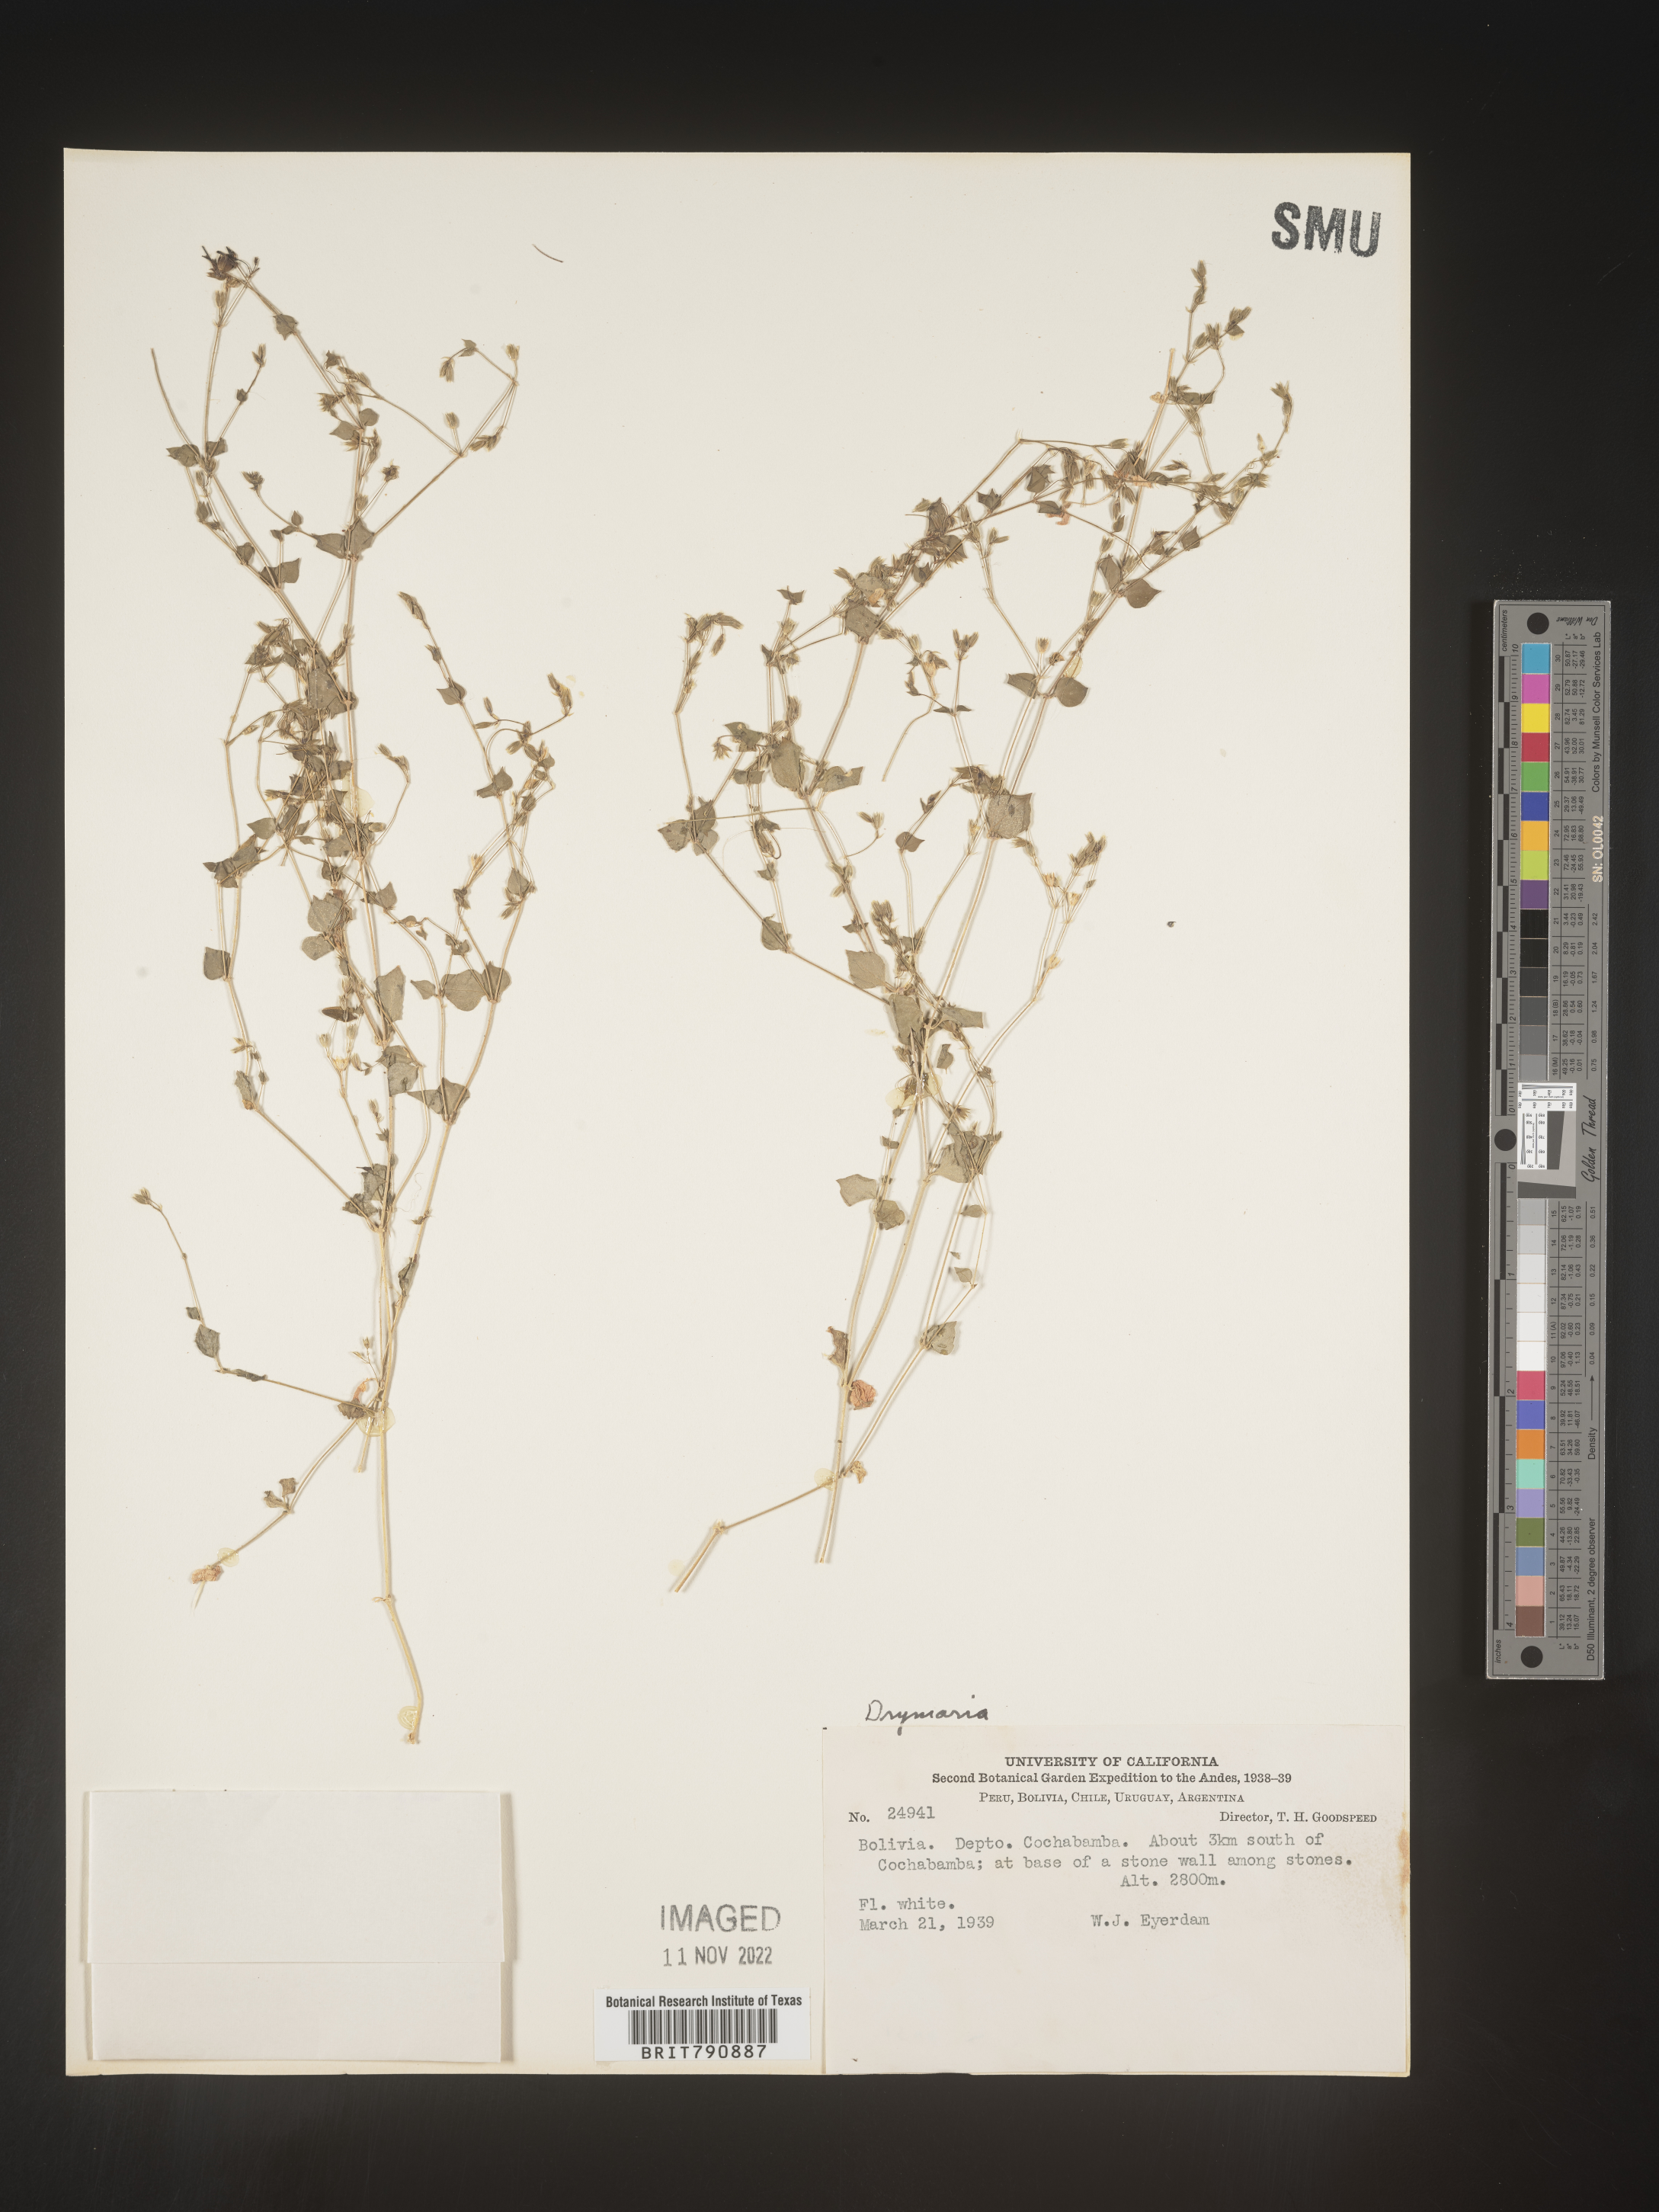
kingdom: Plantae
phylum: Tracheophyta
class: Magnoliopsida
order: Caryophyllales
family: Caryophyllaceae
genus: Drymaria
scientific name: Drymaria
